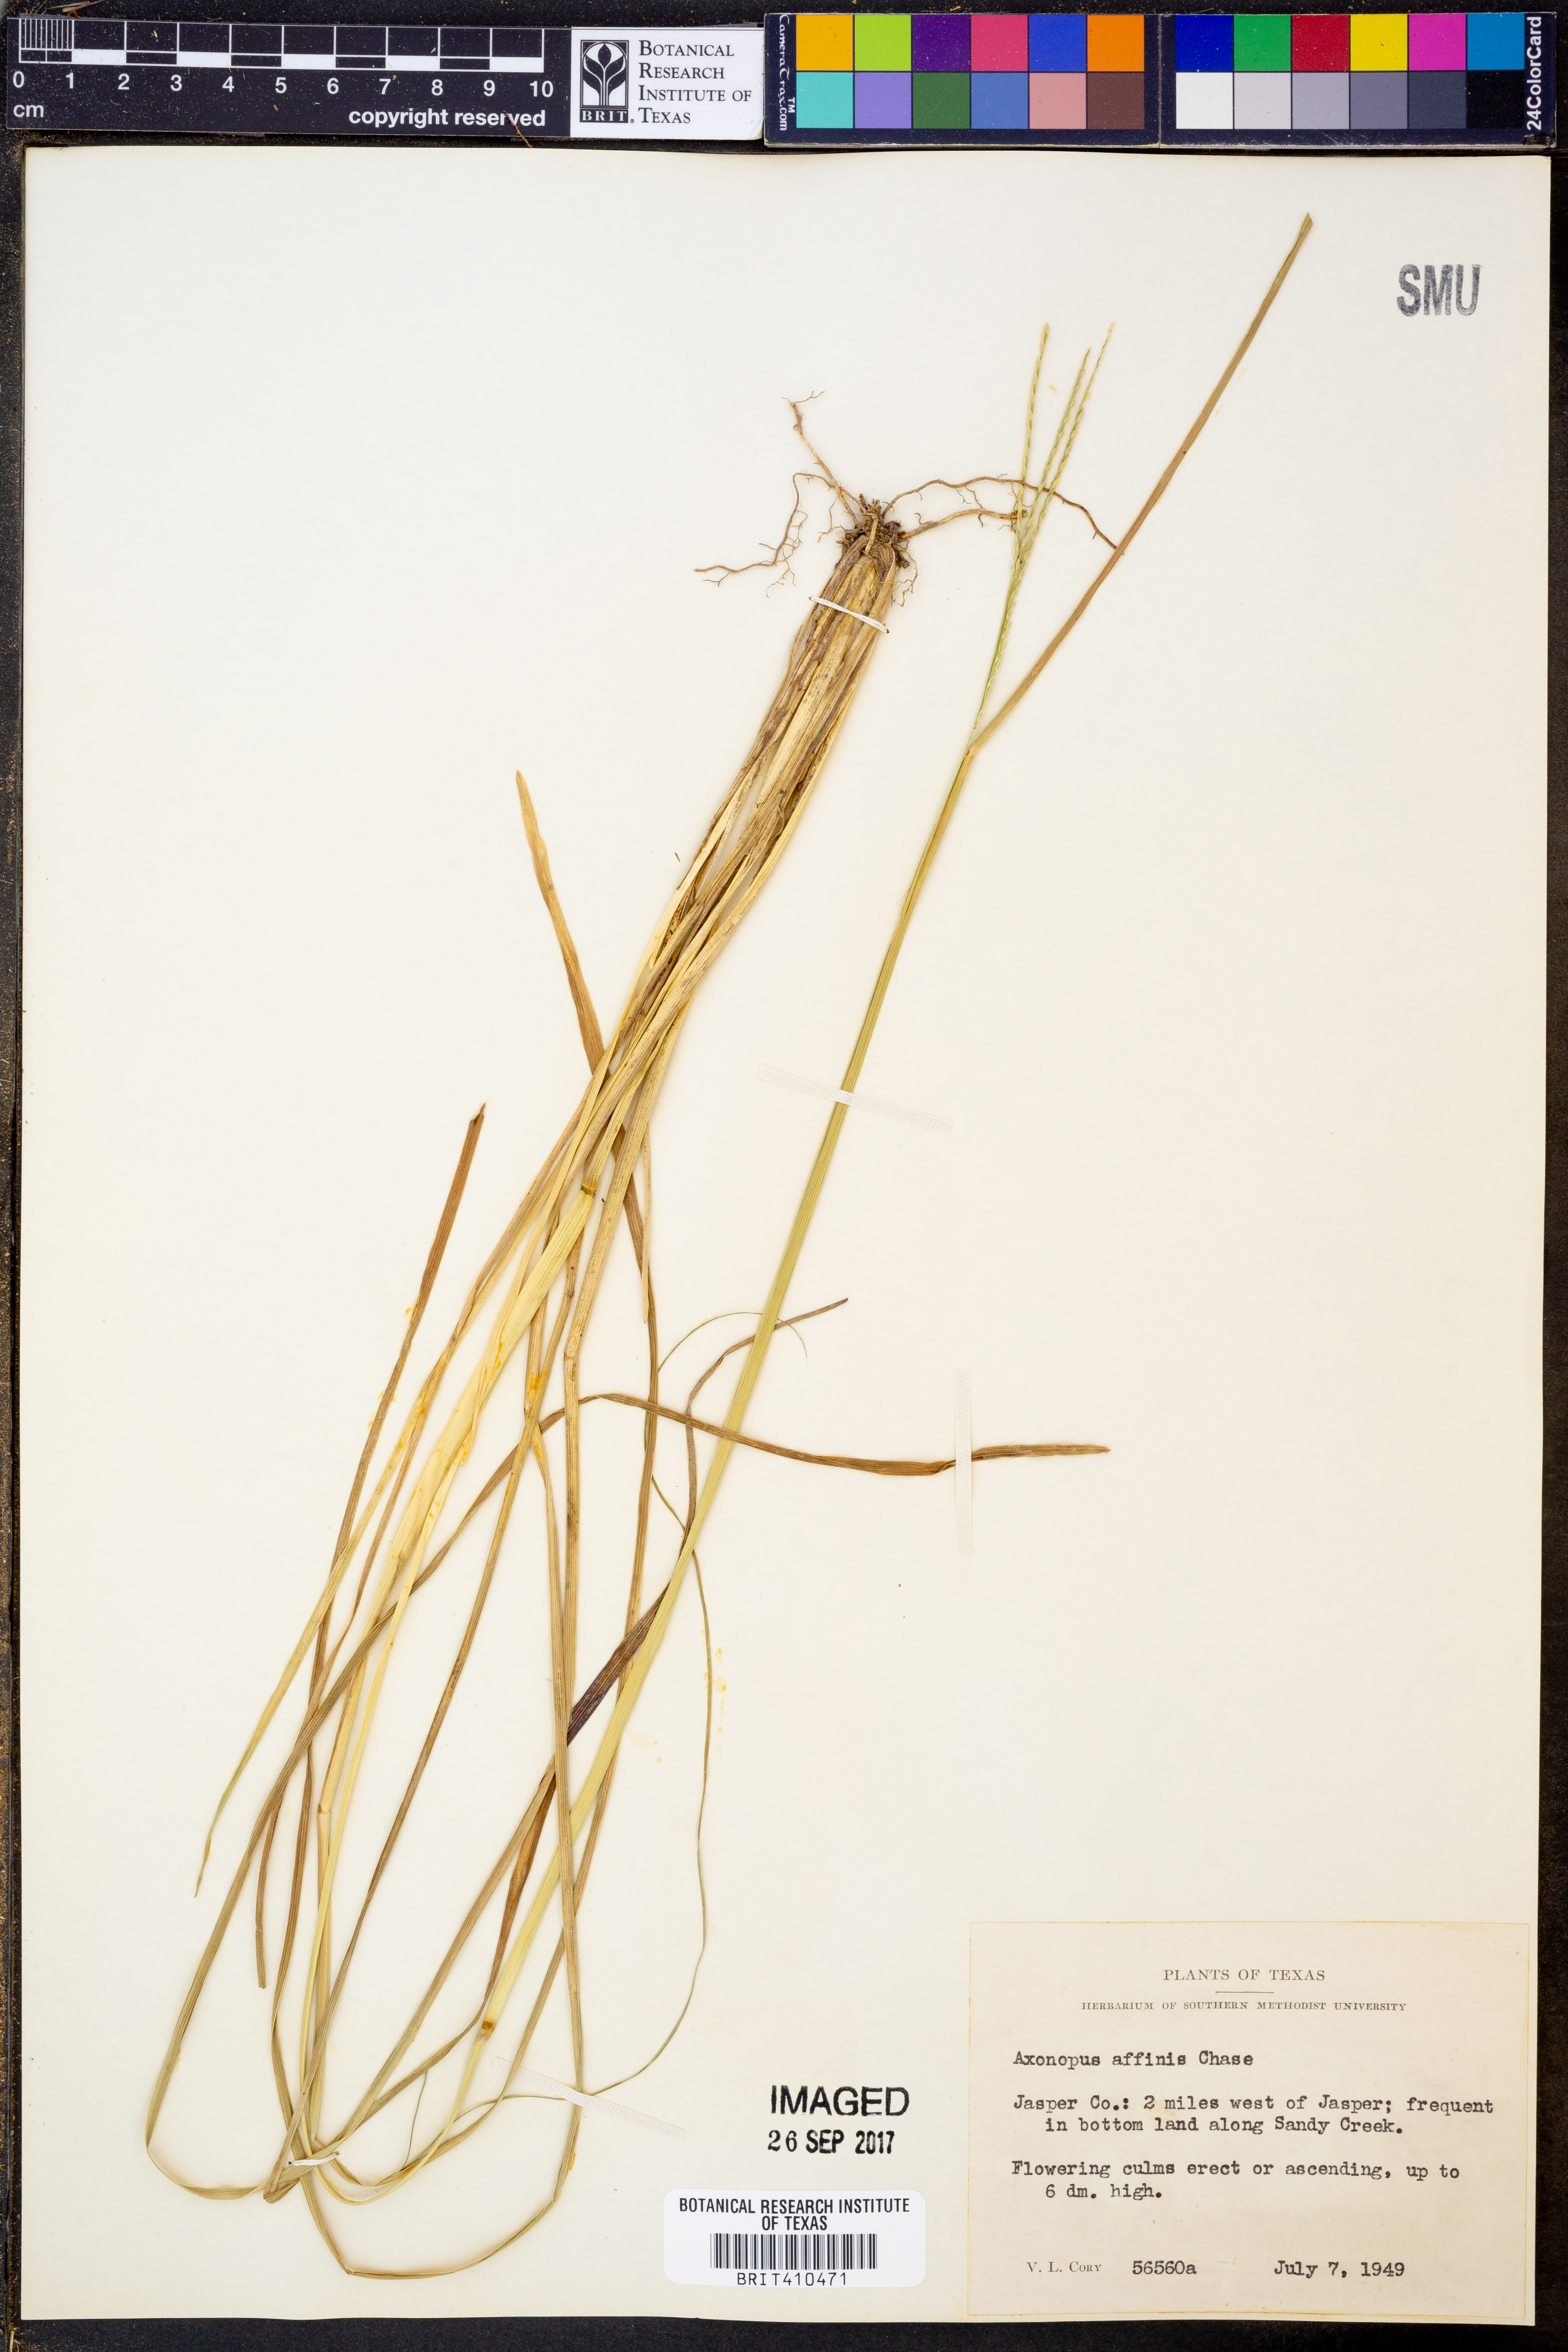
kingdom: Plantae
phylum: Tracheophyta
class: Liliopsida
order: Poales
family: Poaceae
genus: Axonopus
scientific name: Axonopus fissifolius
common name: Common carpetgrass
